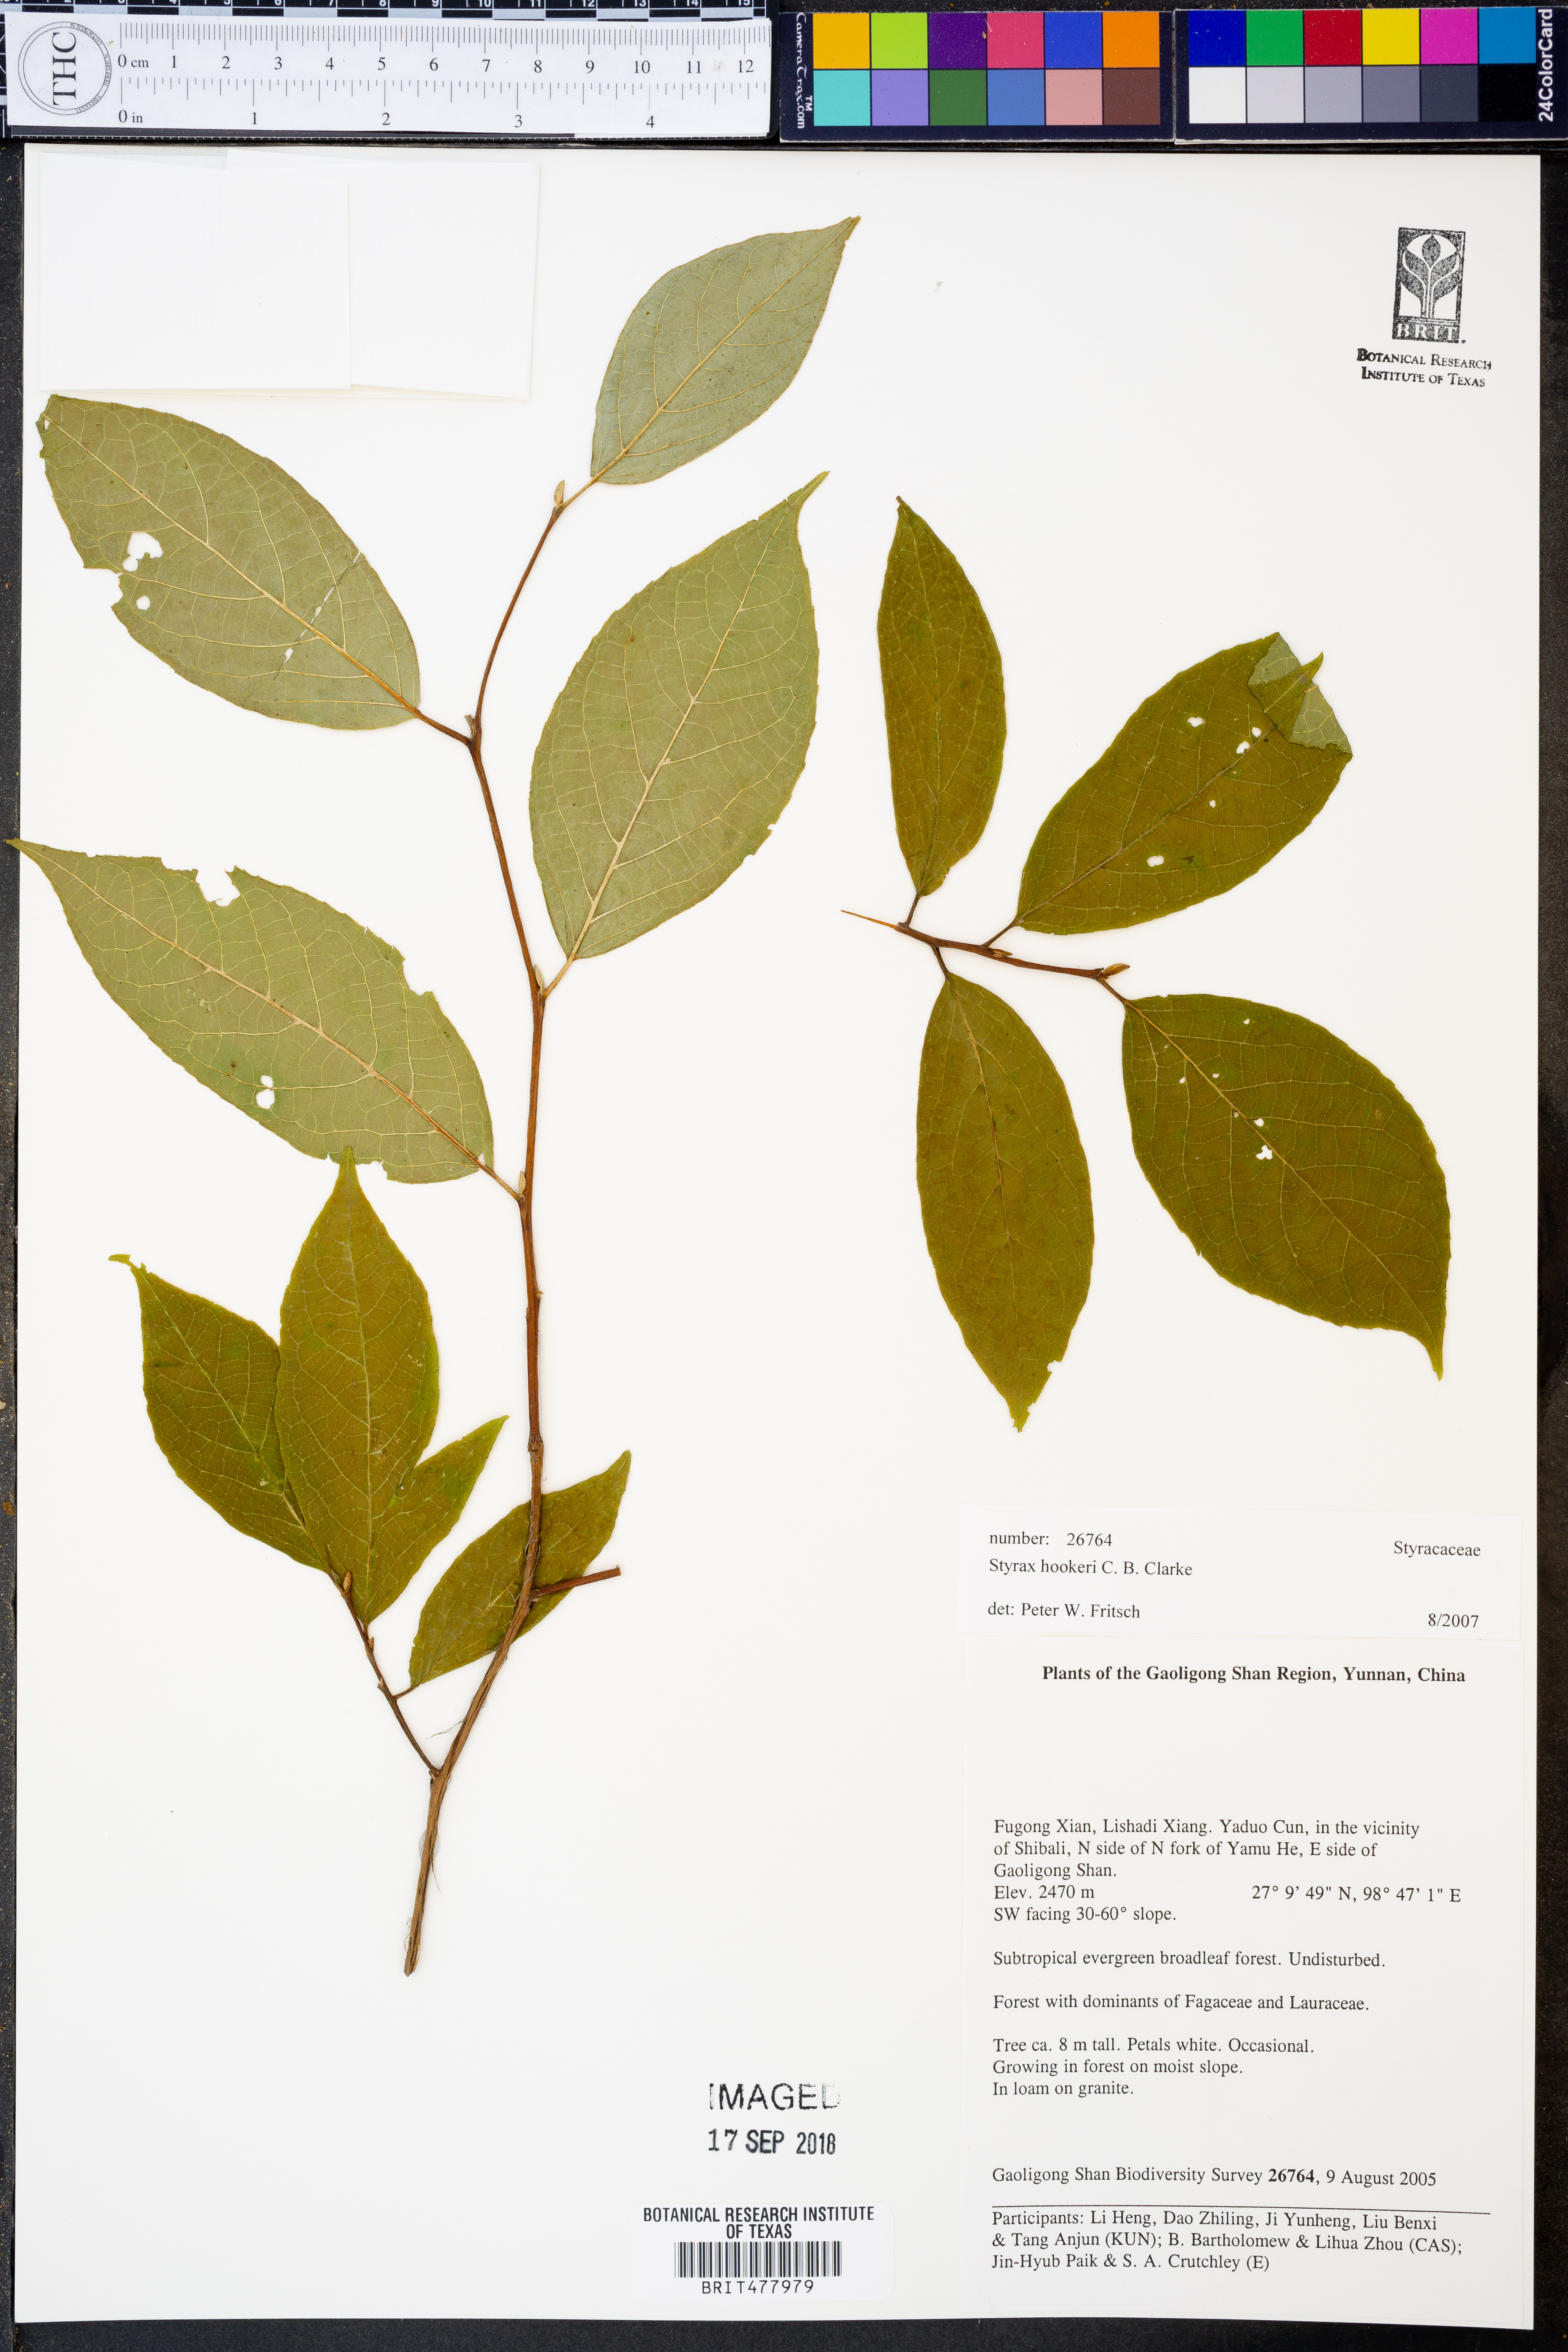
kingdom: Plantae
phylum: Tracheophyta
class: Magnoliopsida
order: Ericales
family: Styracaceae
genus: Styrax
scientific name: Styrax hookeri
